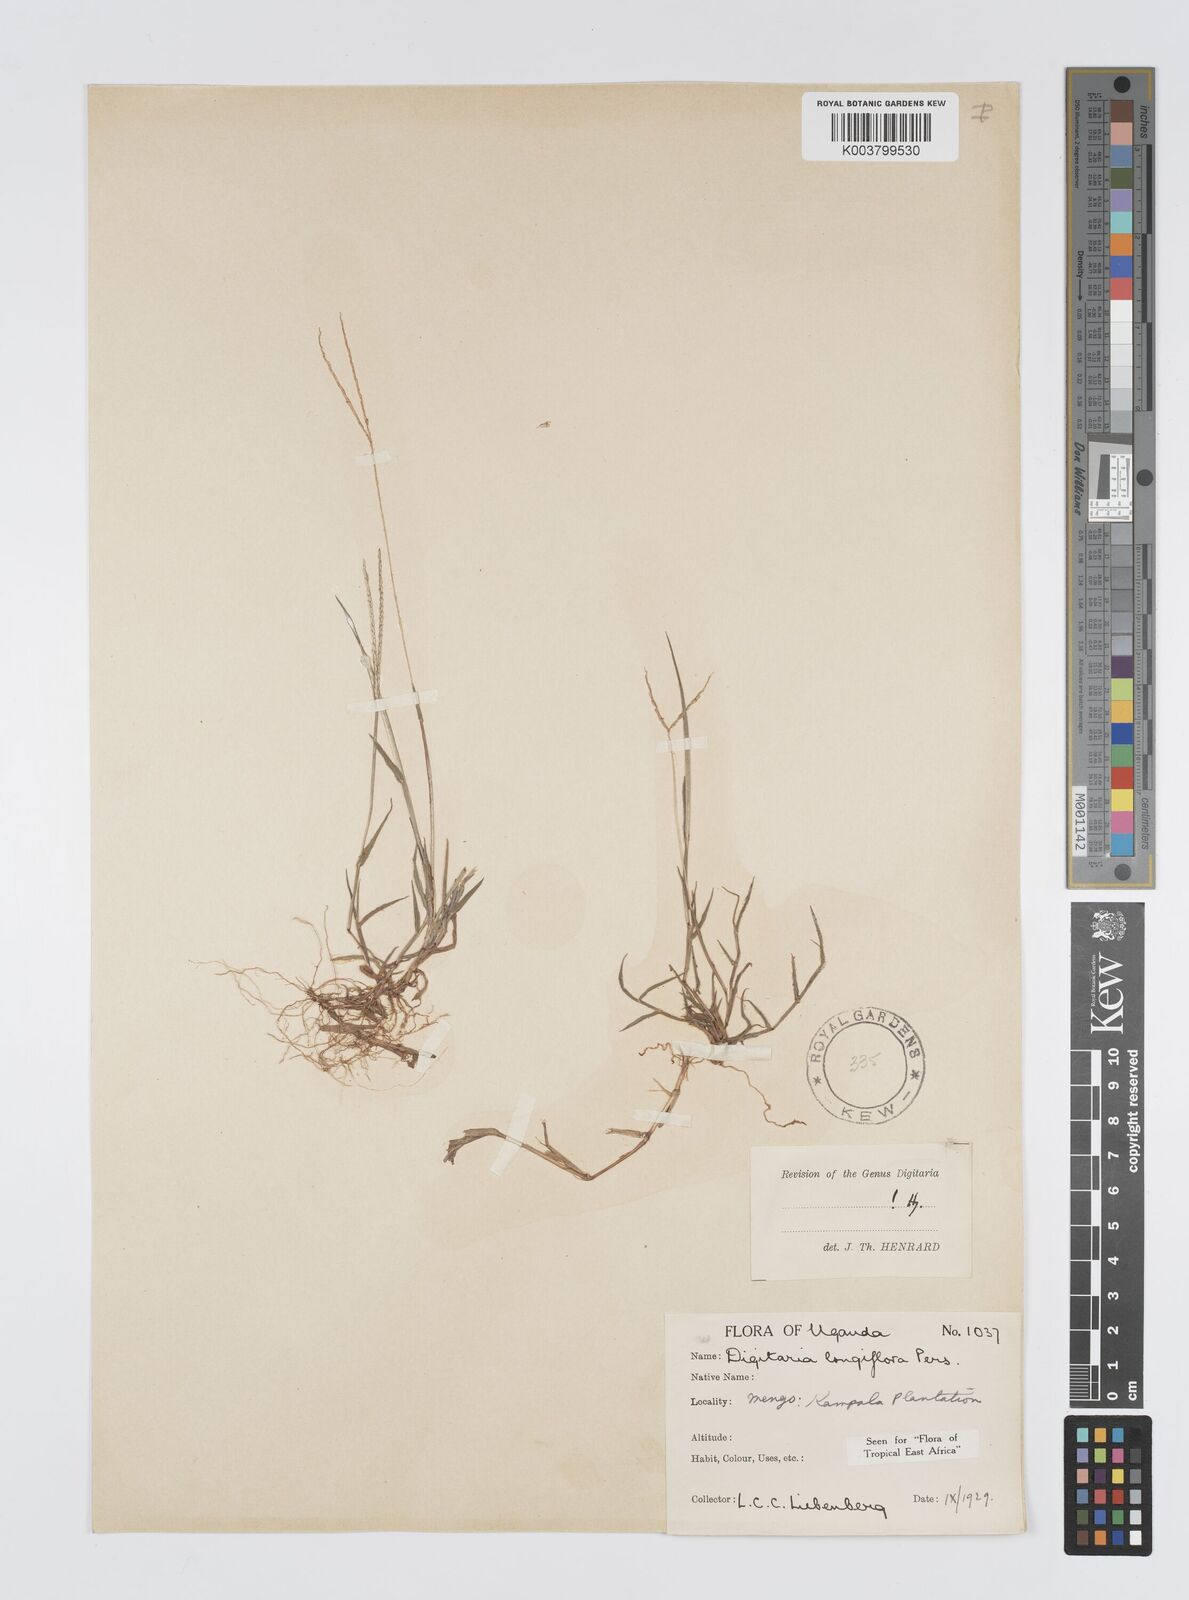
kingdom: Plantae
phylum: Tracheophyta
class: Liliopsida
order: Poales
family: Poaceae
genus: Digitaria
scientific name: Digitaria longiflora
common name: Wire crabgrass
